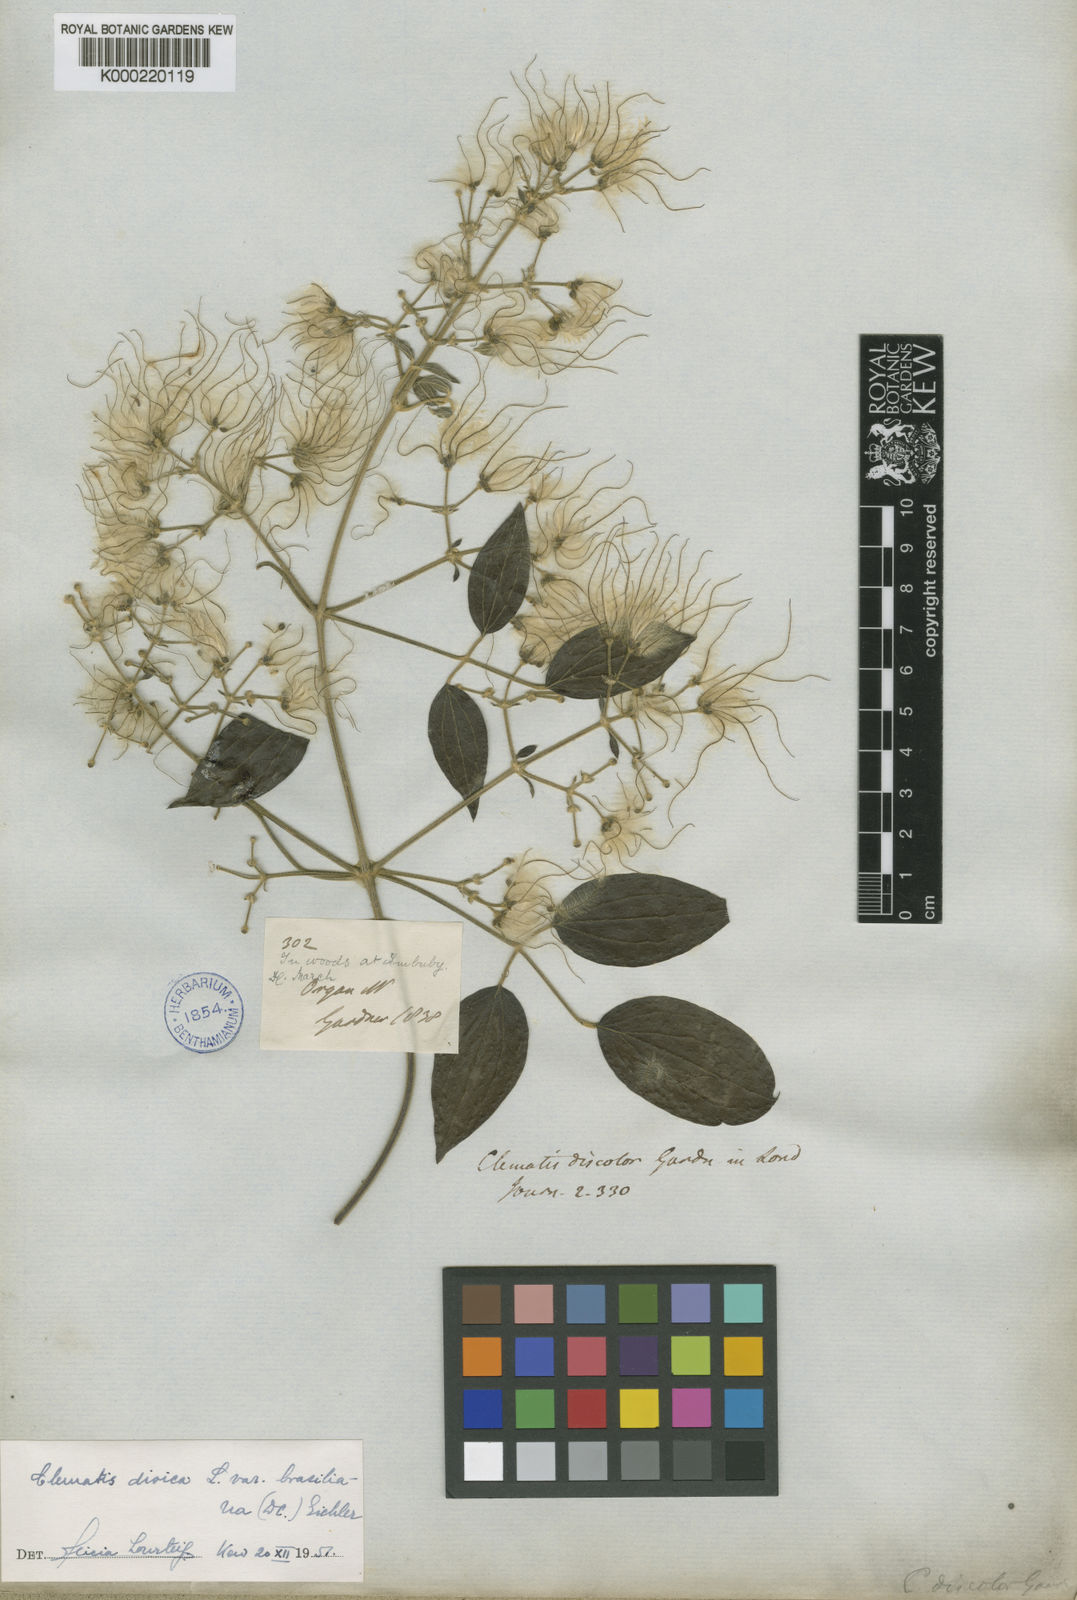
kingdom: Plantae
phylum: Tracheophyta
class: Magnoliopsida
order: Ranunculales
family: Ranunculaceae
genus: Clematis
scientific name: Clematis montevidensis
